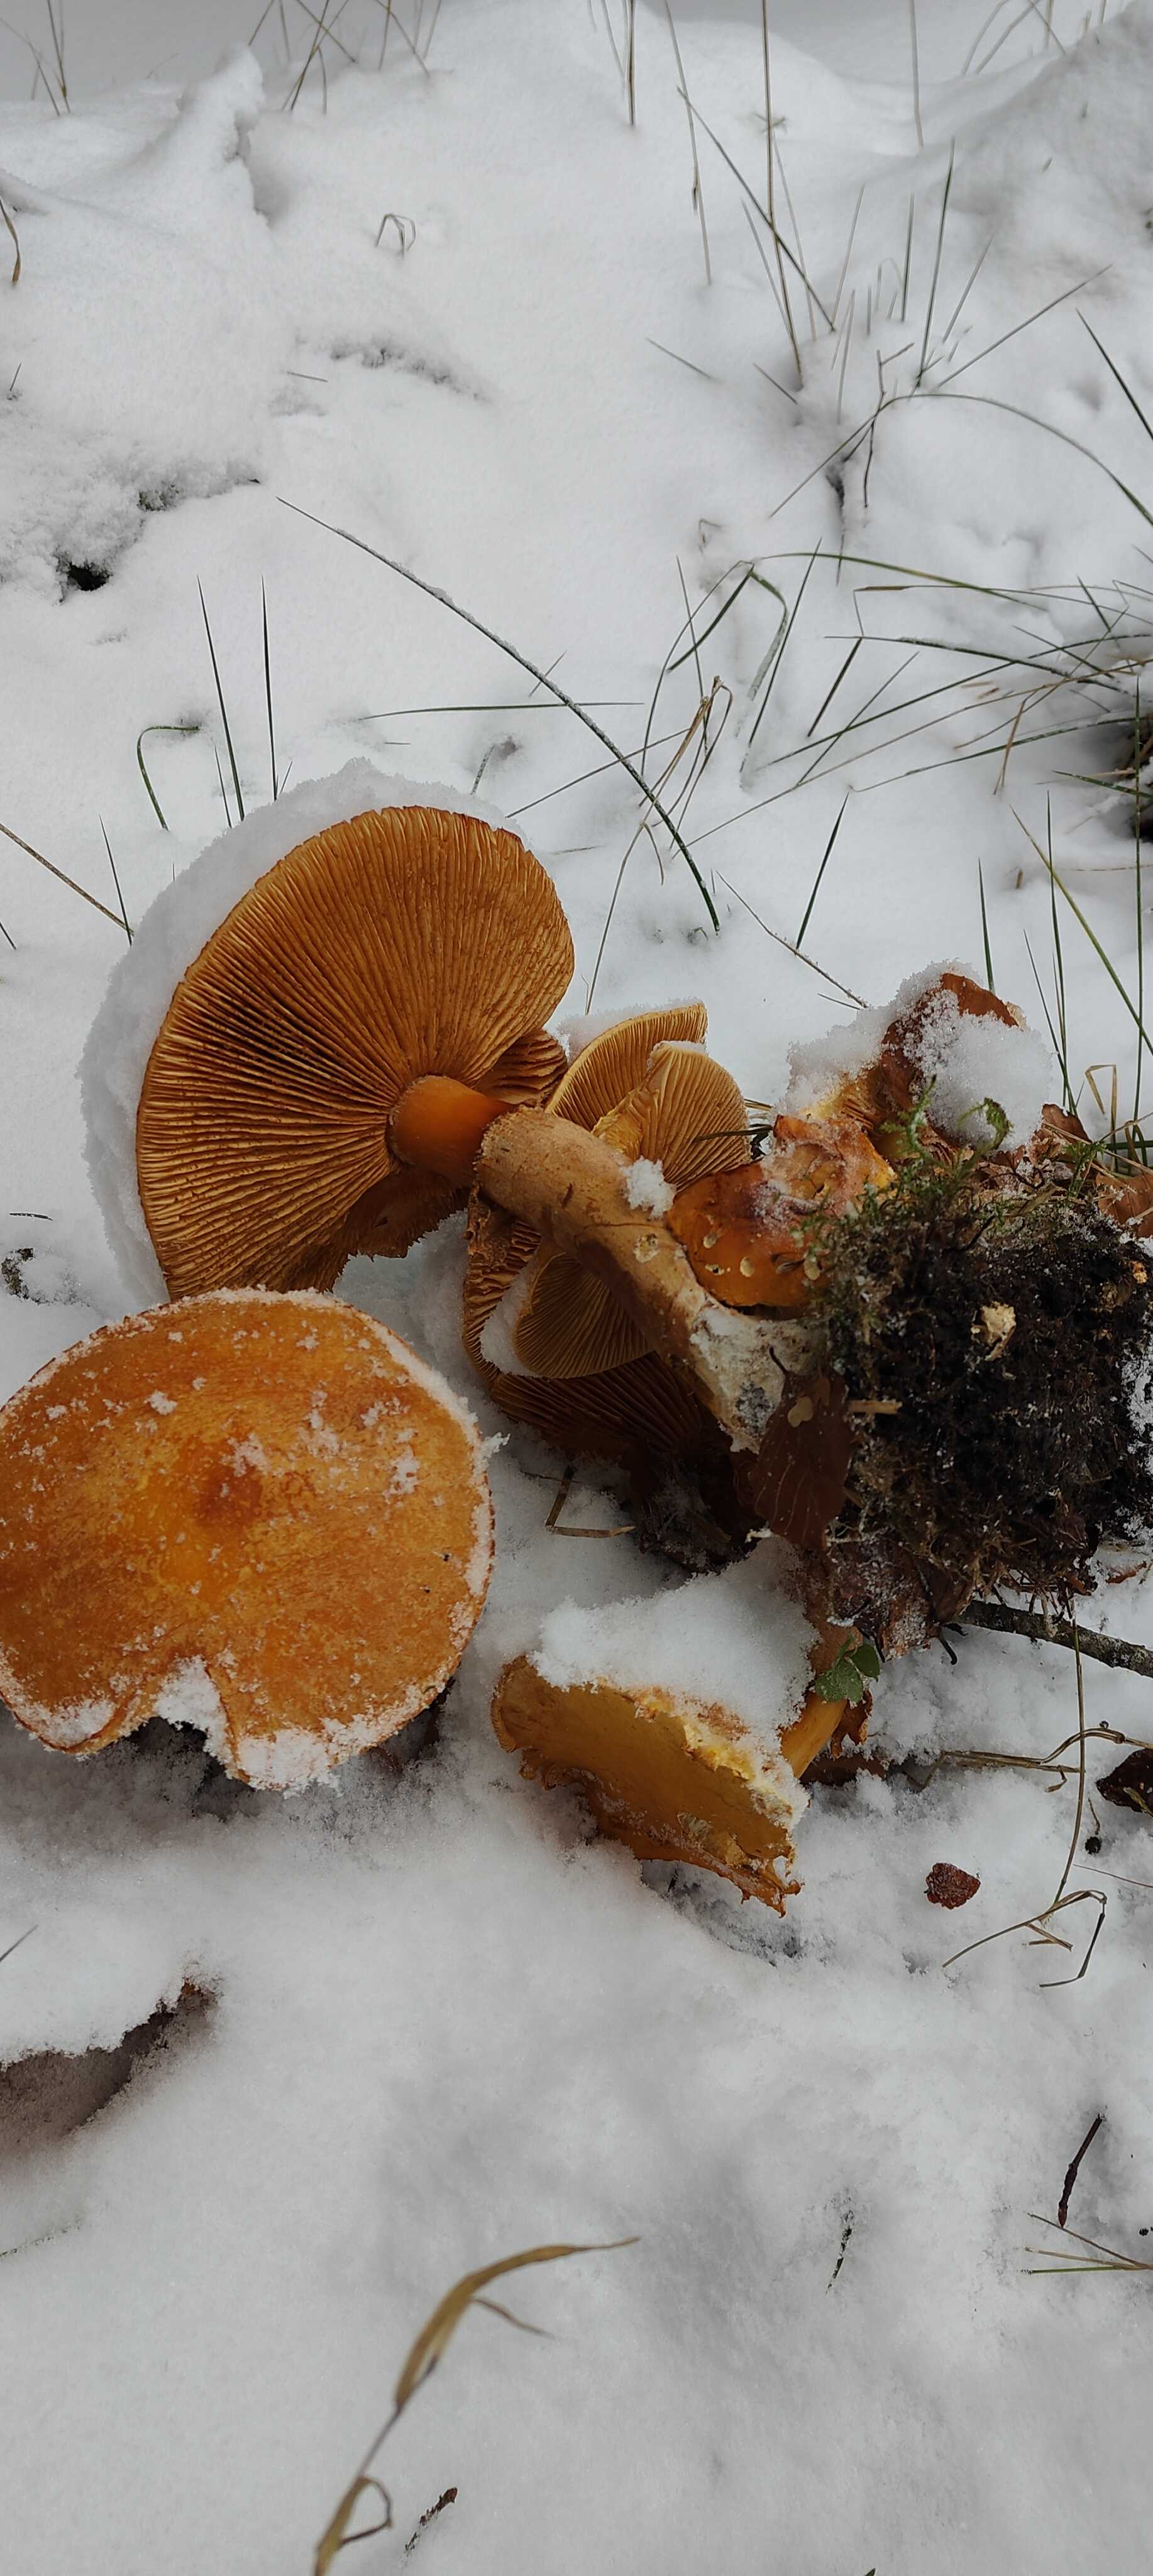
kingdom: Fungi
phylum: Basidiomycota
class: Agaricomycetes
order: Agaricales
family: Tricholomataceae
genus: Phaeolepiota
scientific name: Phaeolepiota aurea
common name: gyldenhat
